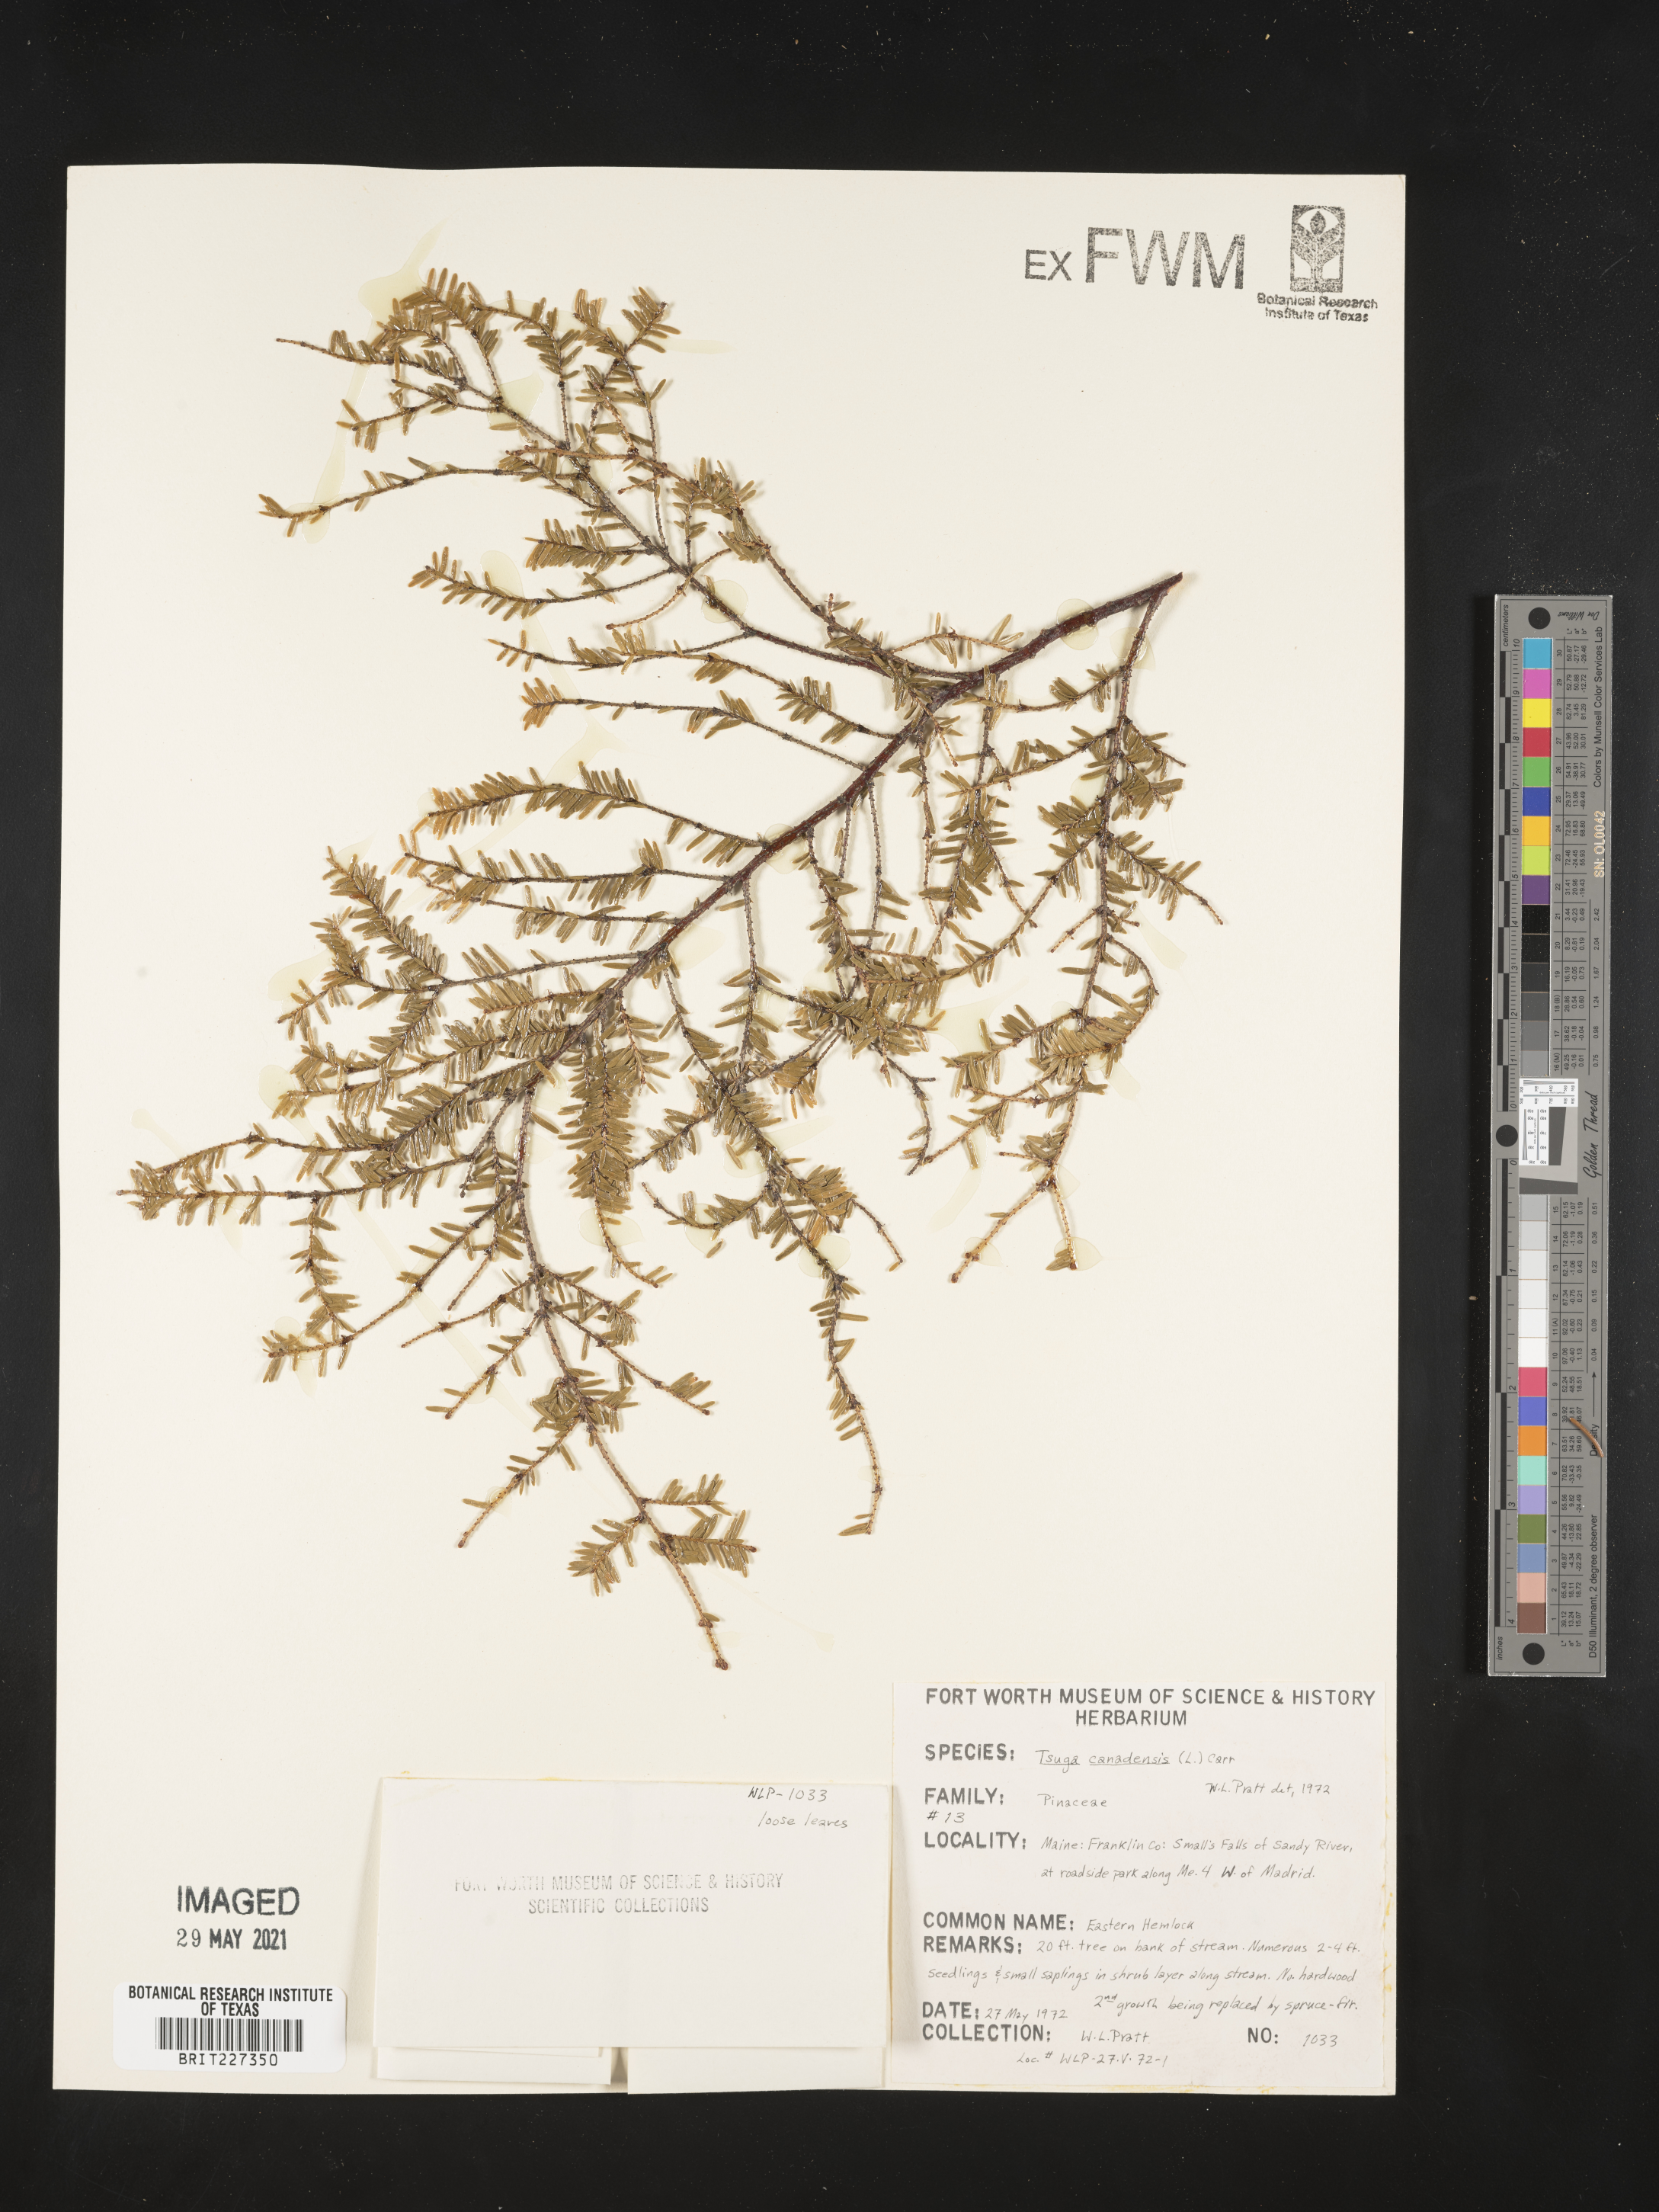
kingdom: Plantae
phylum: Tracheophyta
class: Pinopsida
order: Pinales
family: Pinaceae
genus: Tsuga
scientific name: Tsuga canadensis
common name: Eastern hemlock
